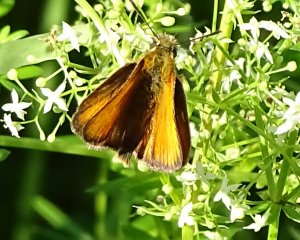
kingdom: Animalia
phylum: Arthropoda
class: Insecta
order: Lepidoptera
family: Hesperiidae
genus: Thymelicus
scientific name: Thymelicus lineola
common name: European Skipper
